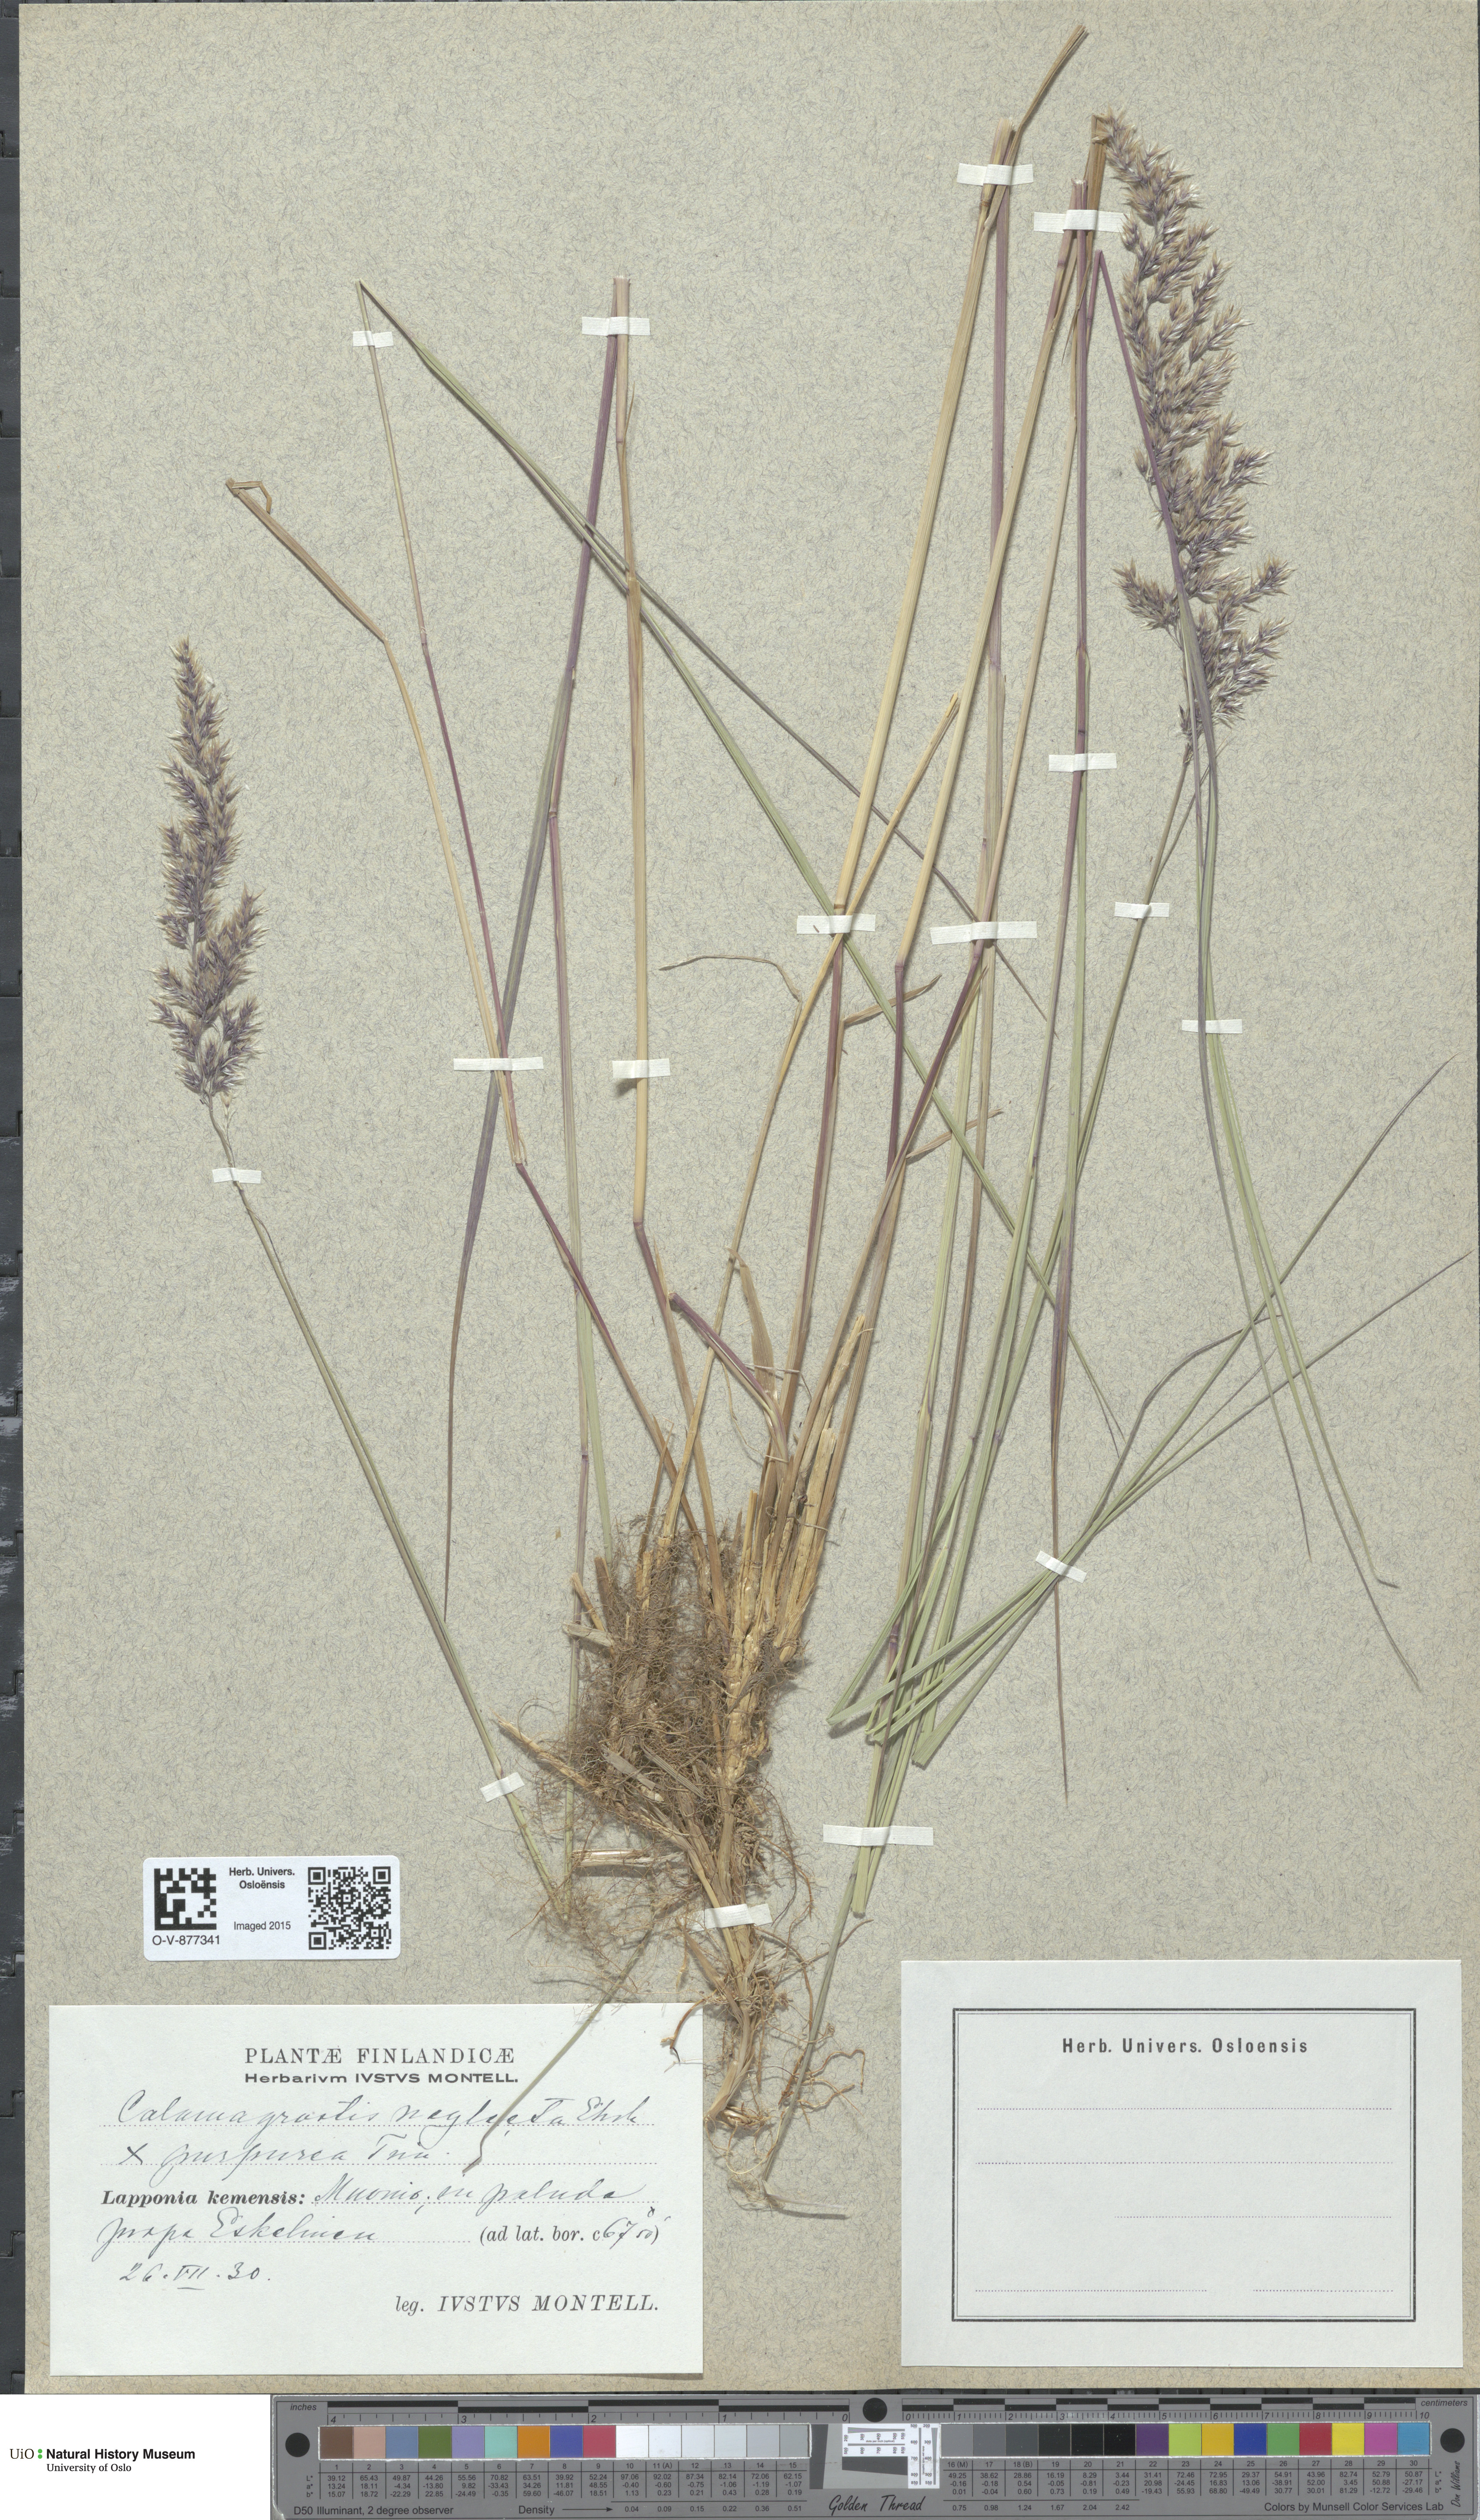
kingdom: Plantae
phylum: Tracheophyta
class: Liliopsida
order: Poales
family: Poaceae
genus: Calamagrostis
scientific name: Calamagrostis
